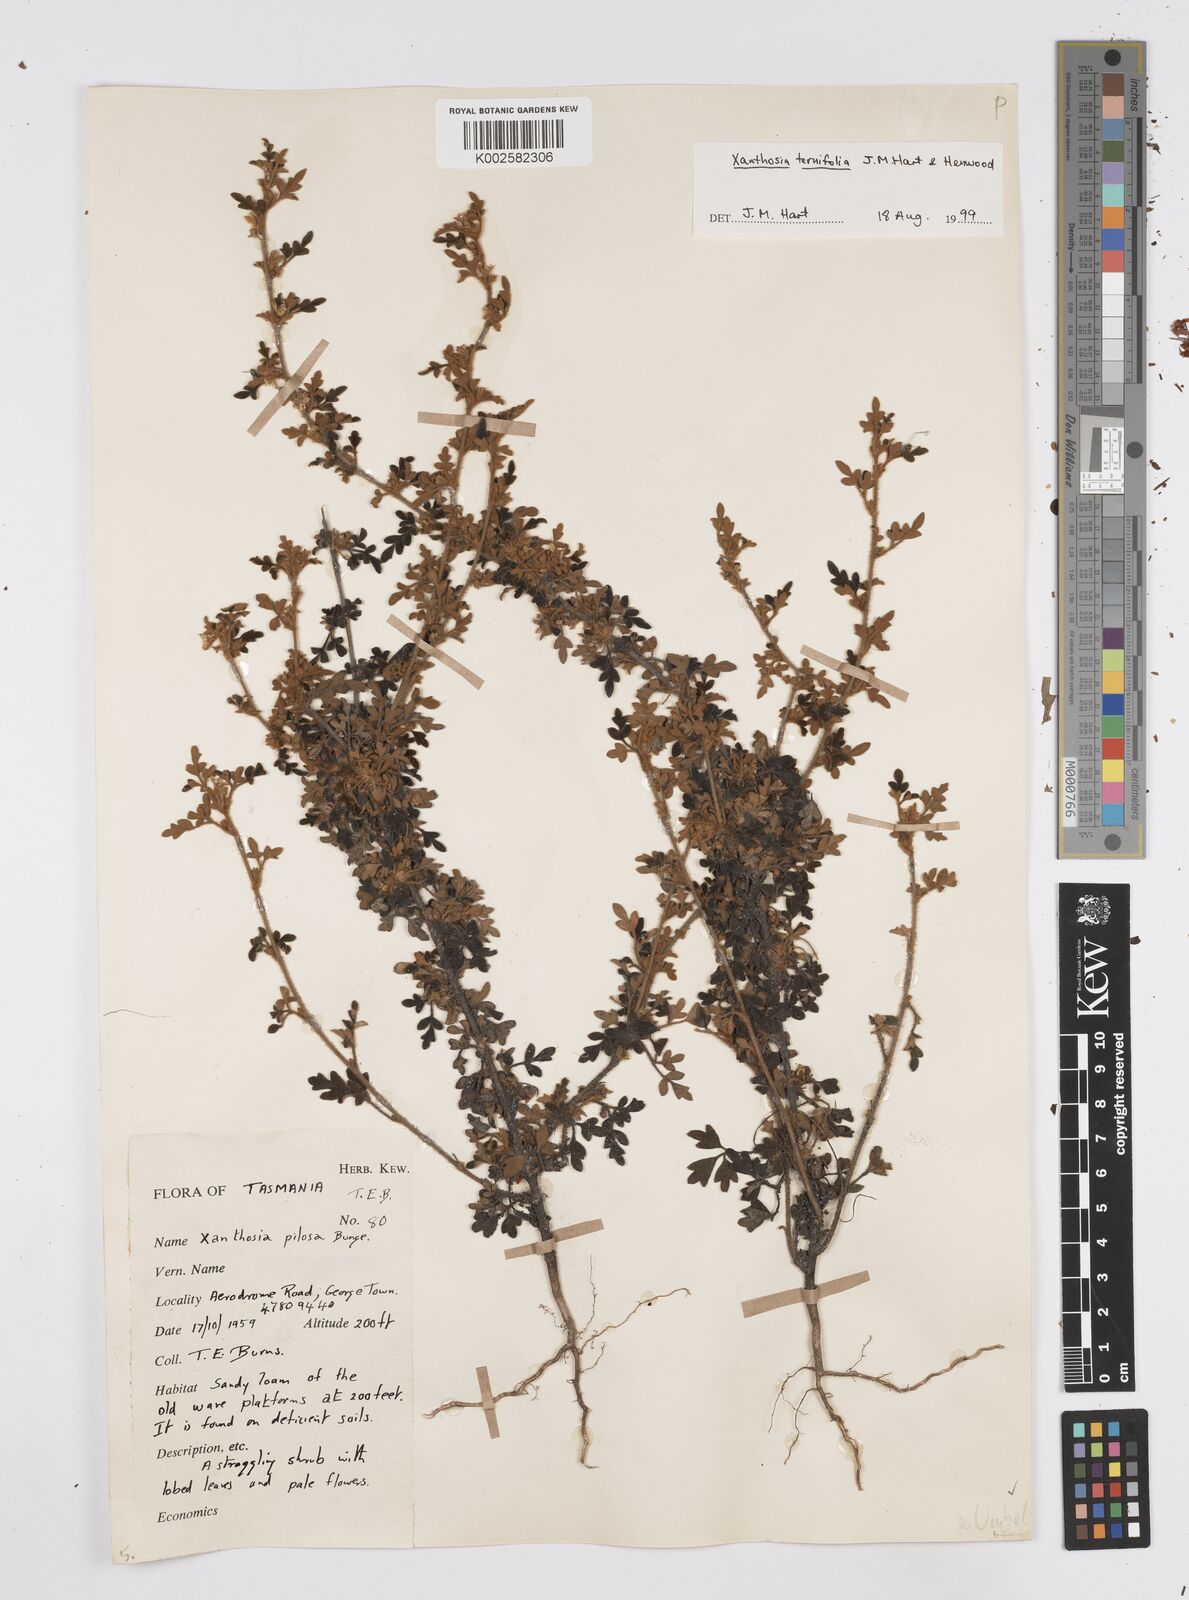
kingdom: Plantae
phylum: Tracheophyta
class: Magnoliopsida
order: Apiales
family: Apiaceae
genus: Xanthosia
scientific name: Xanthosia ternifolia
